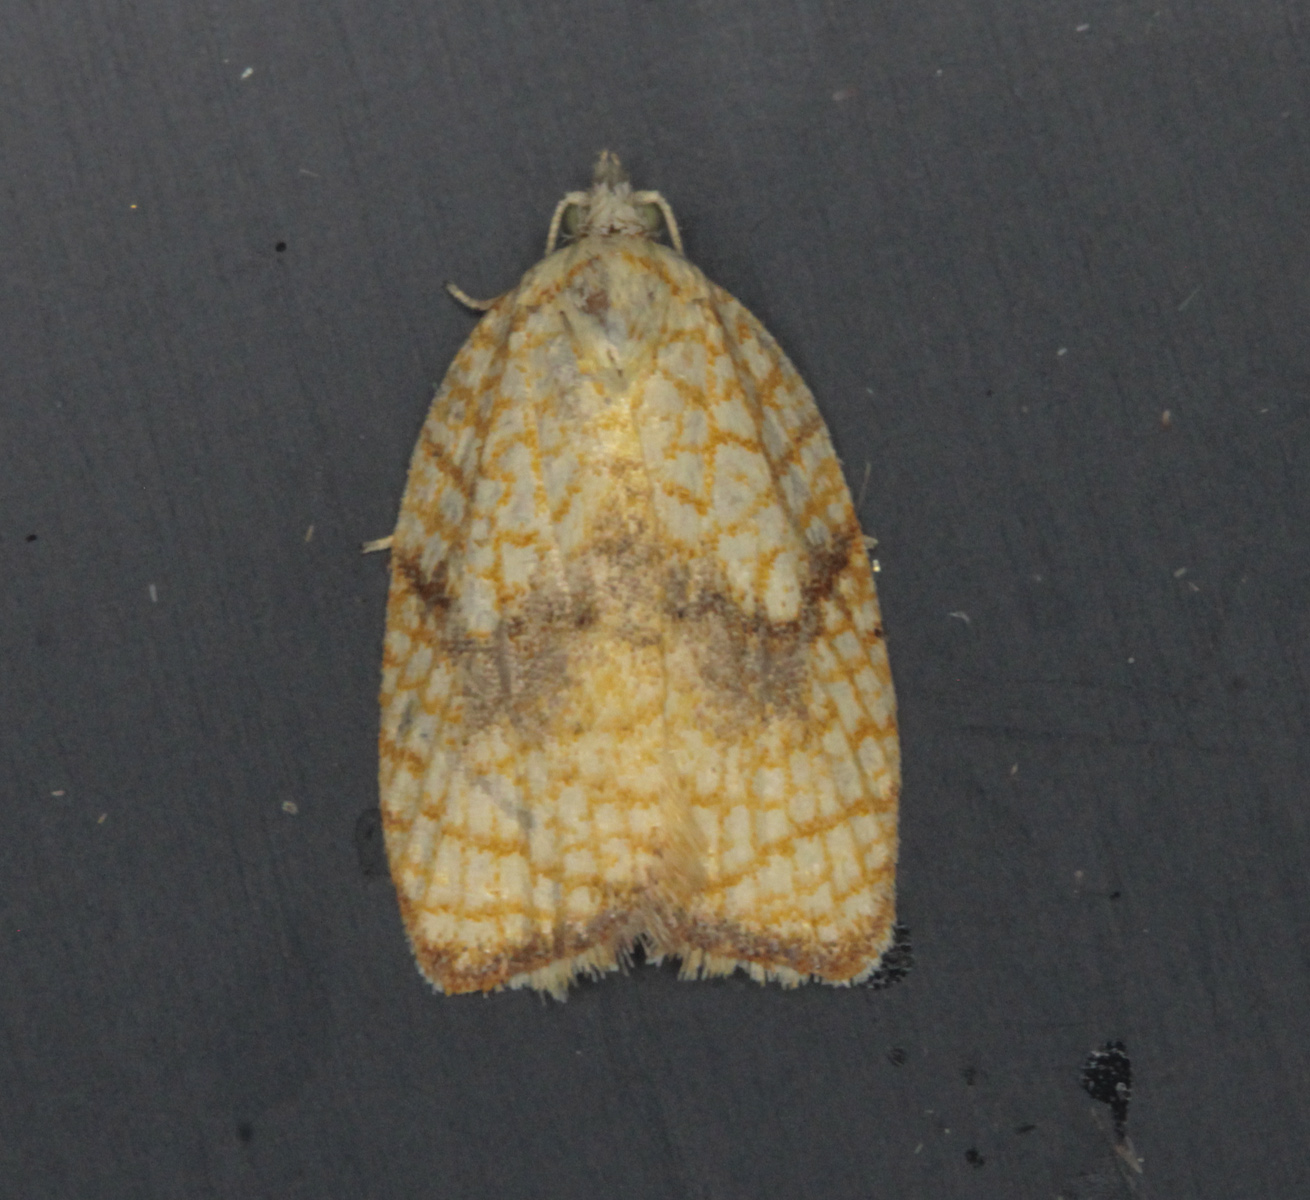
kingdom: Animalia
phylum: Arthropoda
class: Insecta
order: Lepidoptera
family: Tortricidae
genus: Acleris
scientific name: Acleris forsskaleana
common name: Maple button
